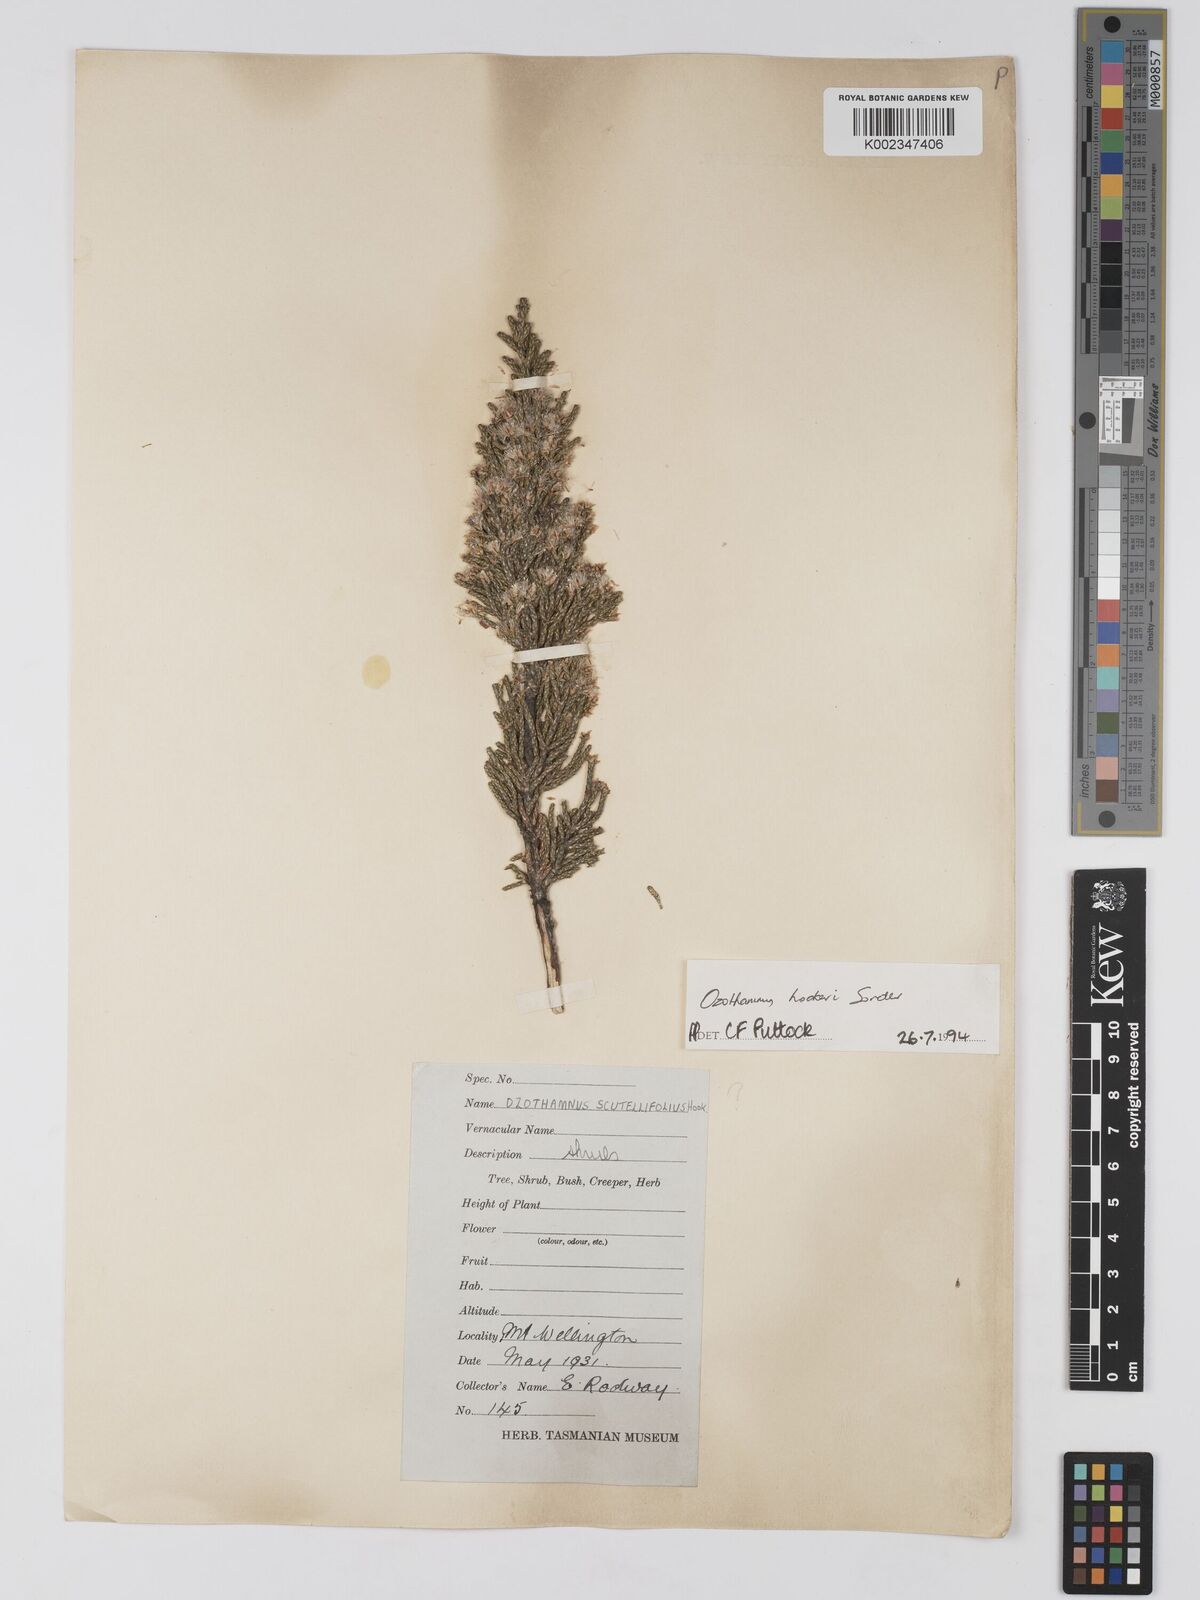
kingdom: Plantae
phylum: Tracheophyta
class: Magnoliopsida
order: Asterales
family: Asteraceae
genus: Ozothamnus
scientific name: Ozothamnus hookeri
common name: Kerosene-bush
